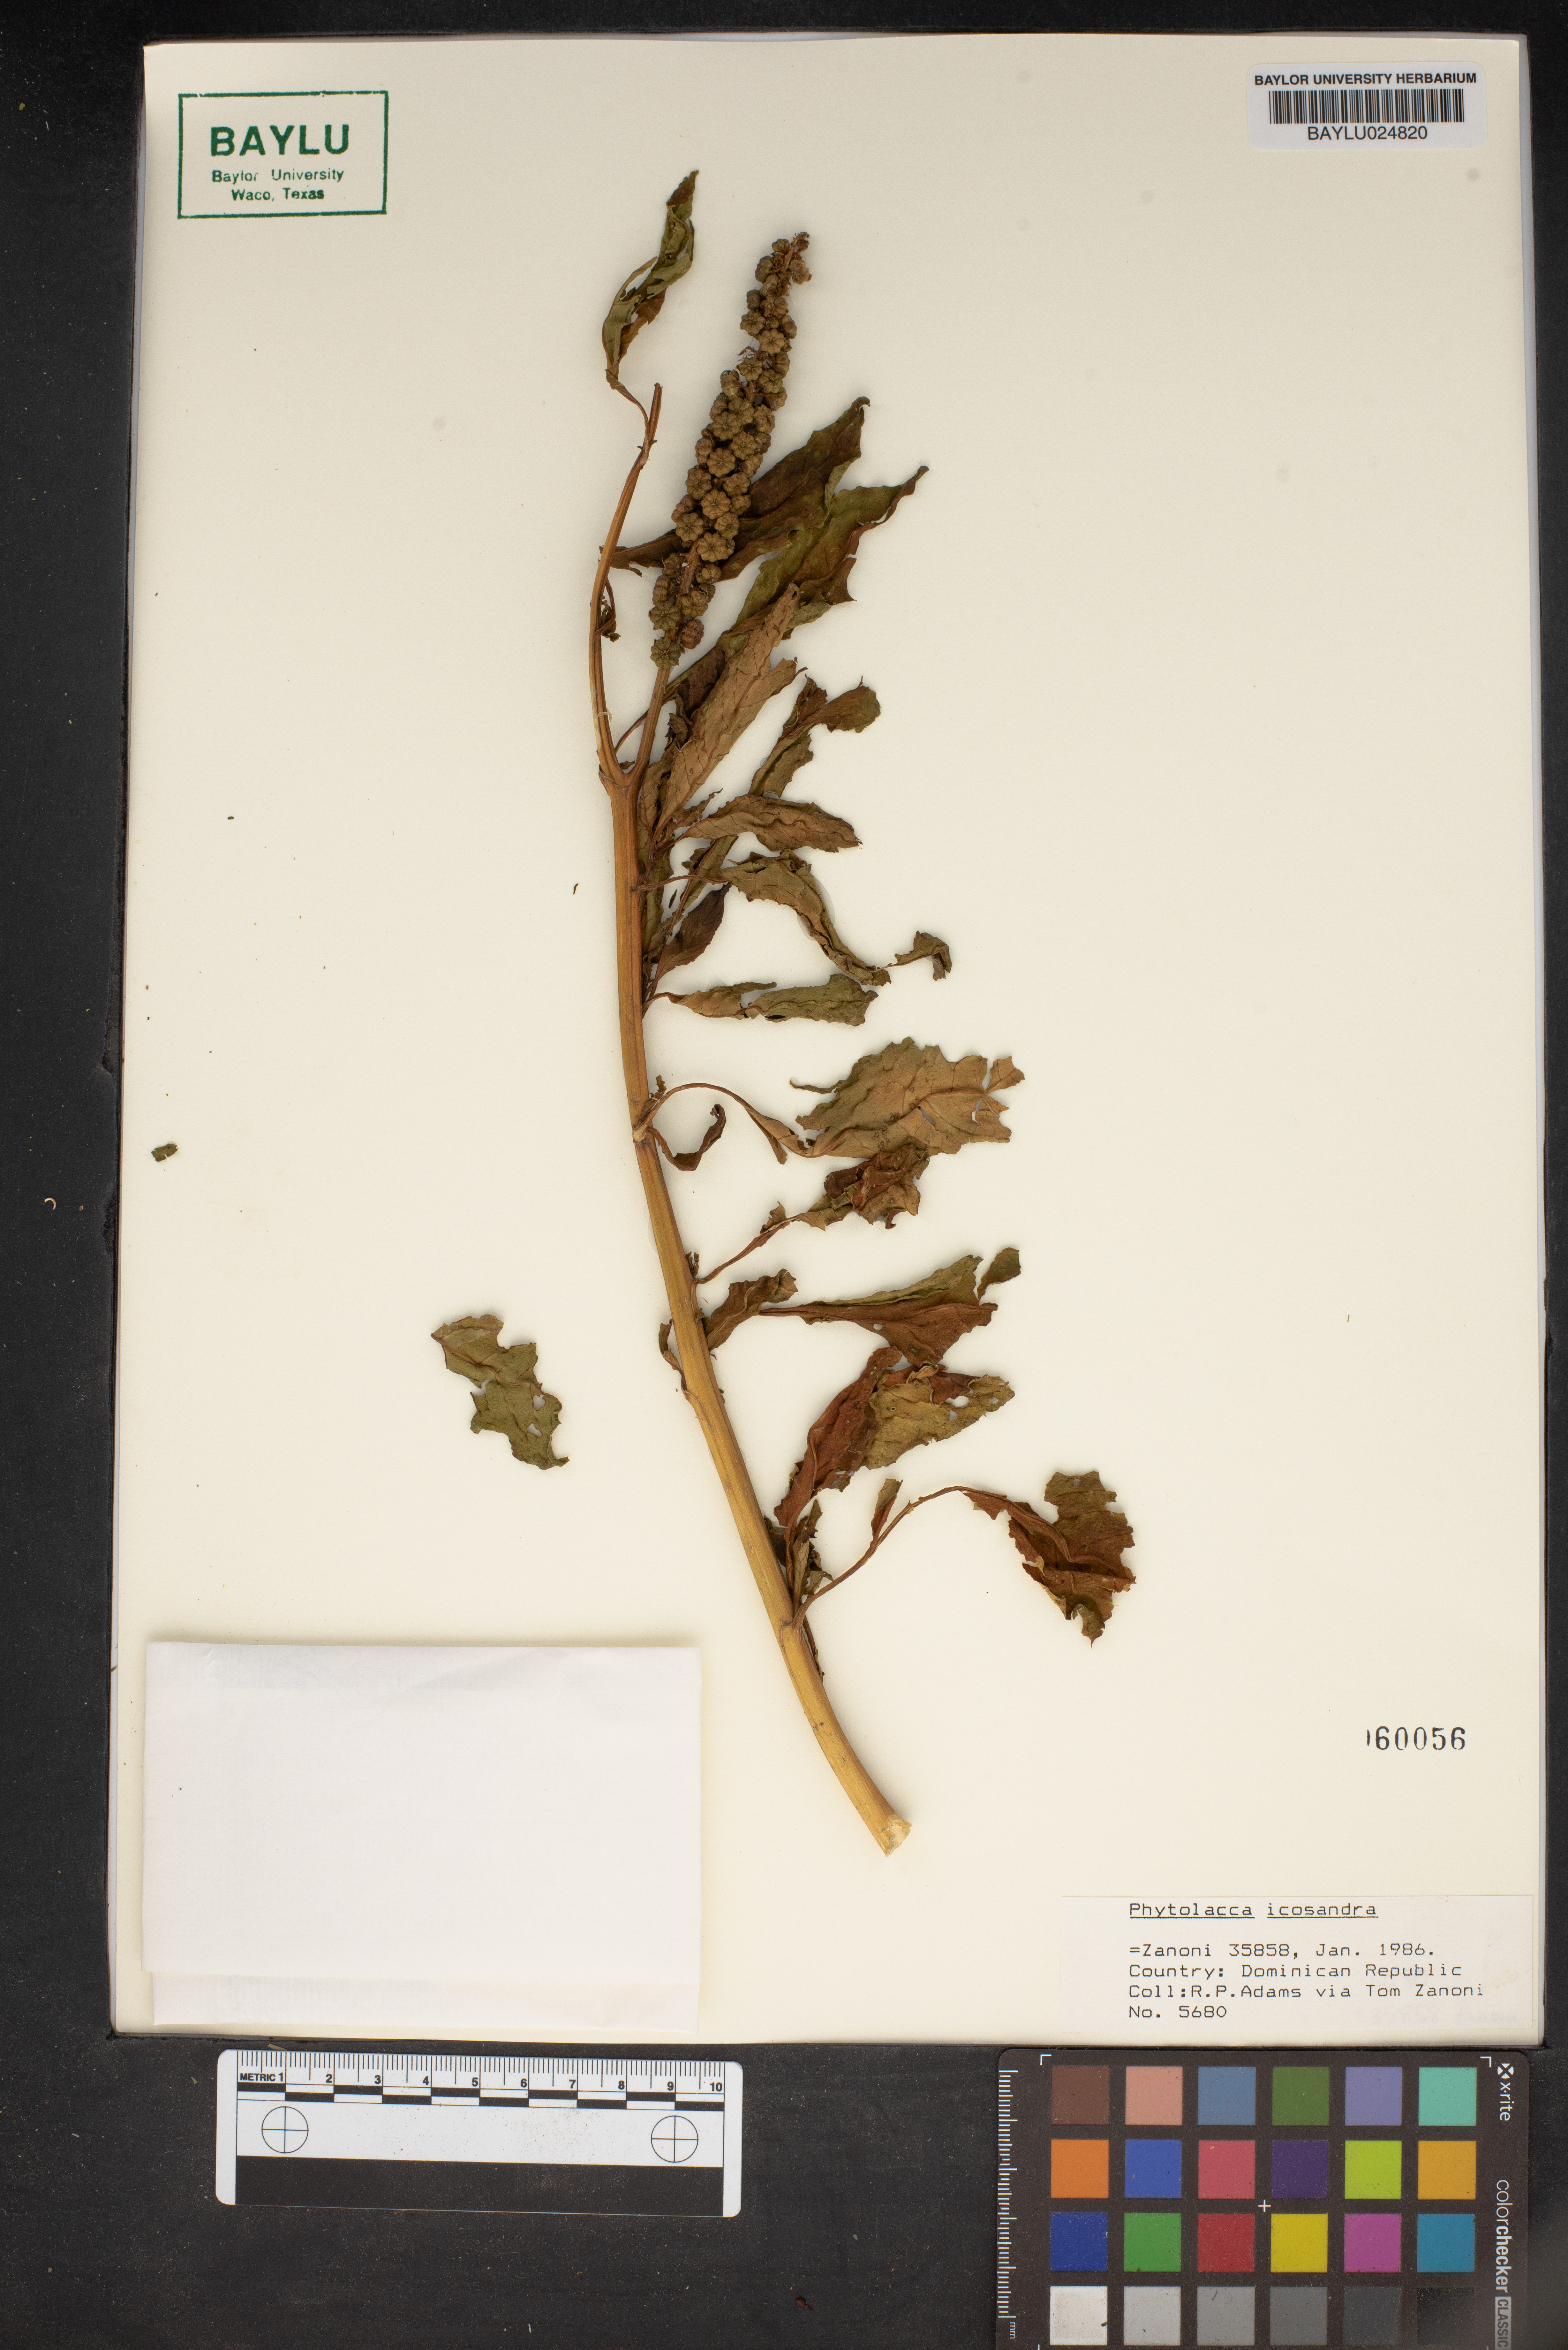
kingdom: Plantae
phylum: Tracheophyta
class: Magnoliopsida
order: Caryophyllales
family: Phytolaccaceae
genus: Phytolacca
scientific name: Phytolacca icosandra
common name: Button pokeweed
